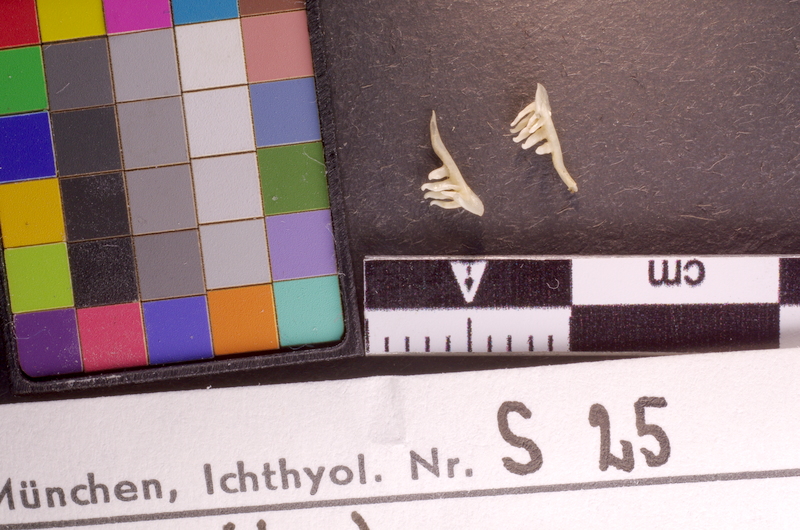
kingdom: Animalia
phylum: Chordata
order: Cypriniformes
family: Cyprinidae
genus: Phoxinus
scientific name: Phoxinus phoxinus
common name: Minnow
